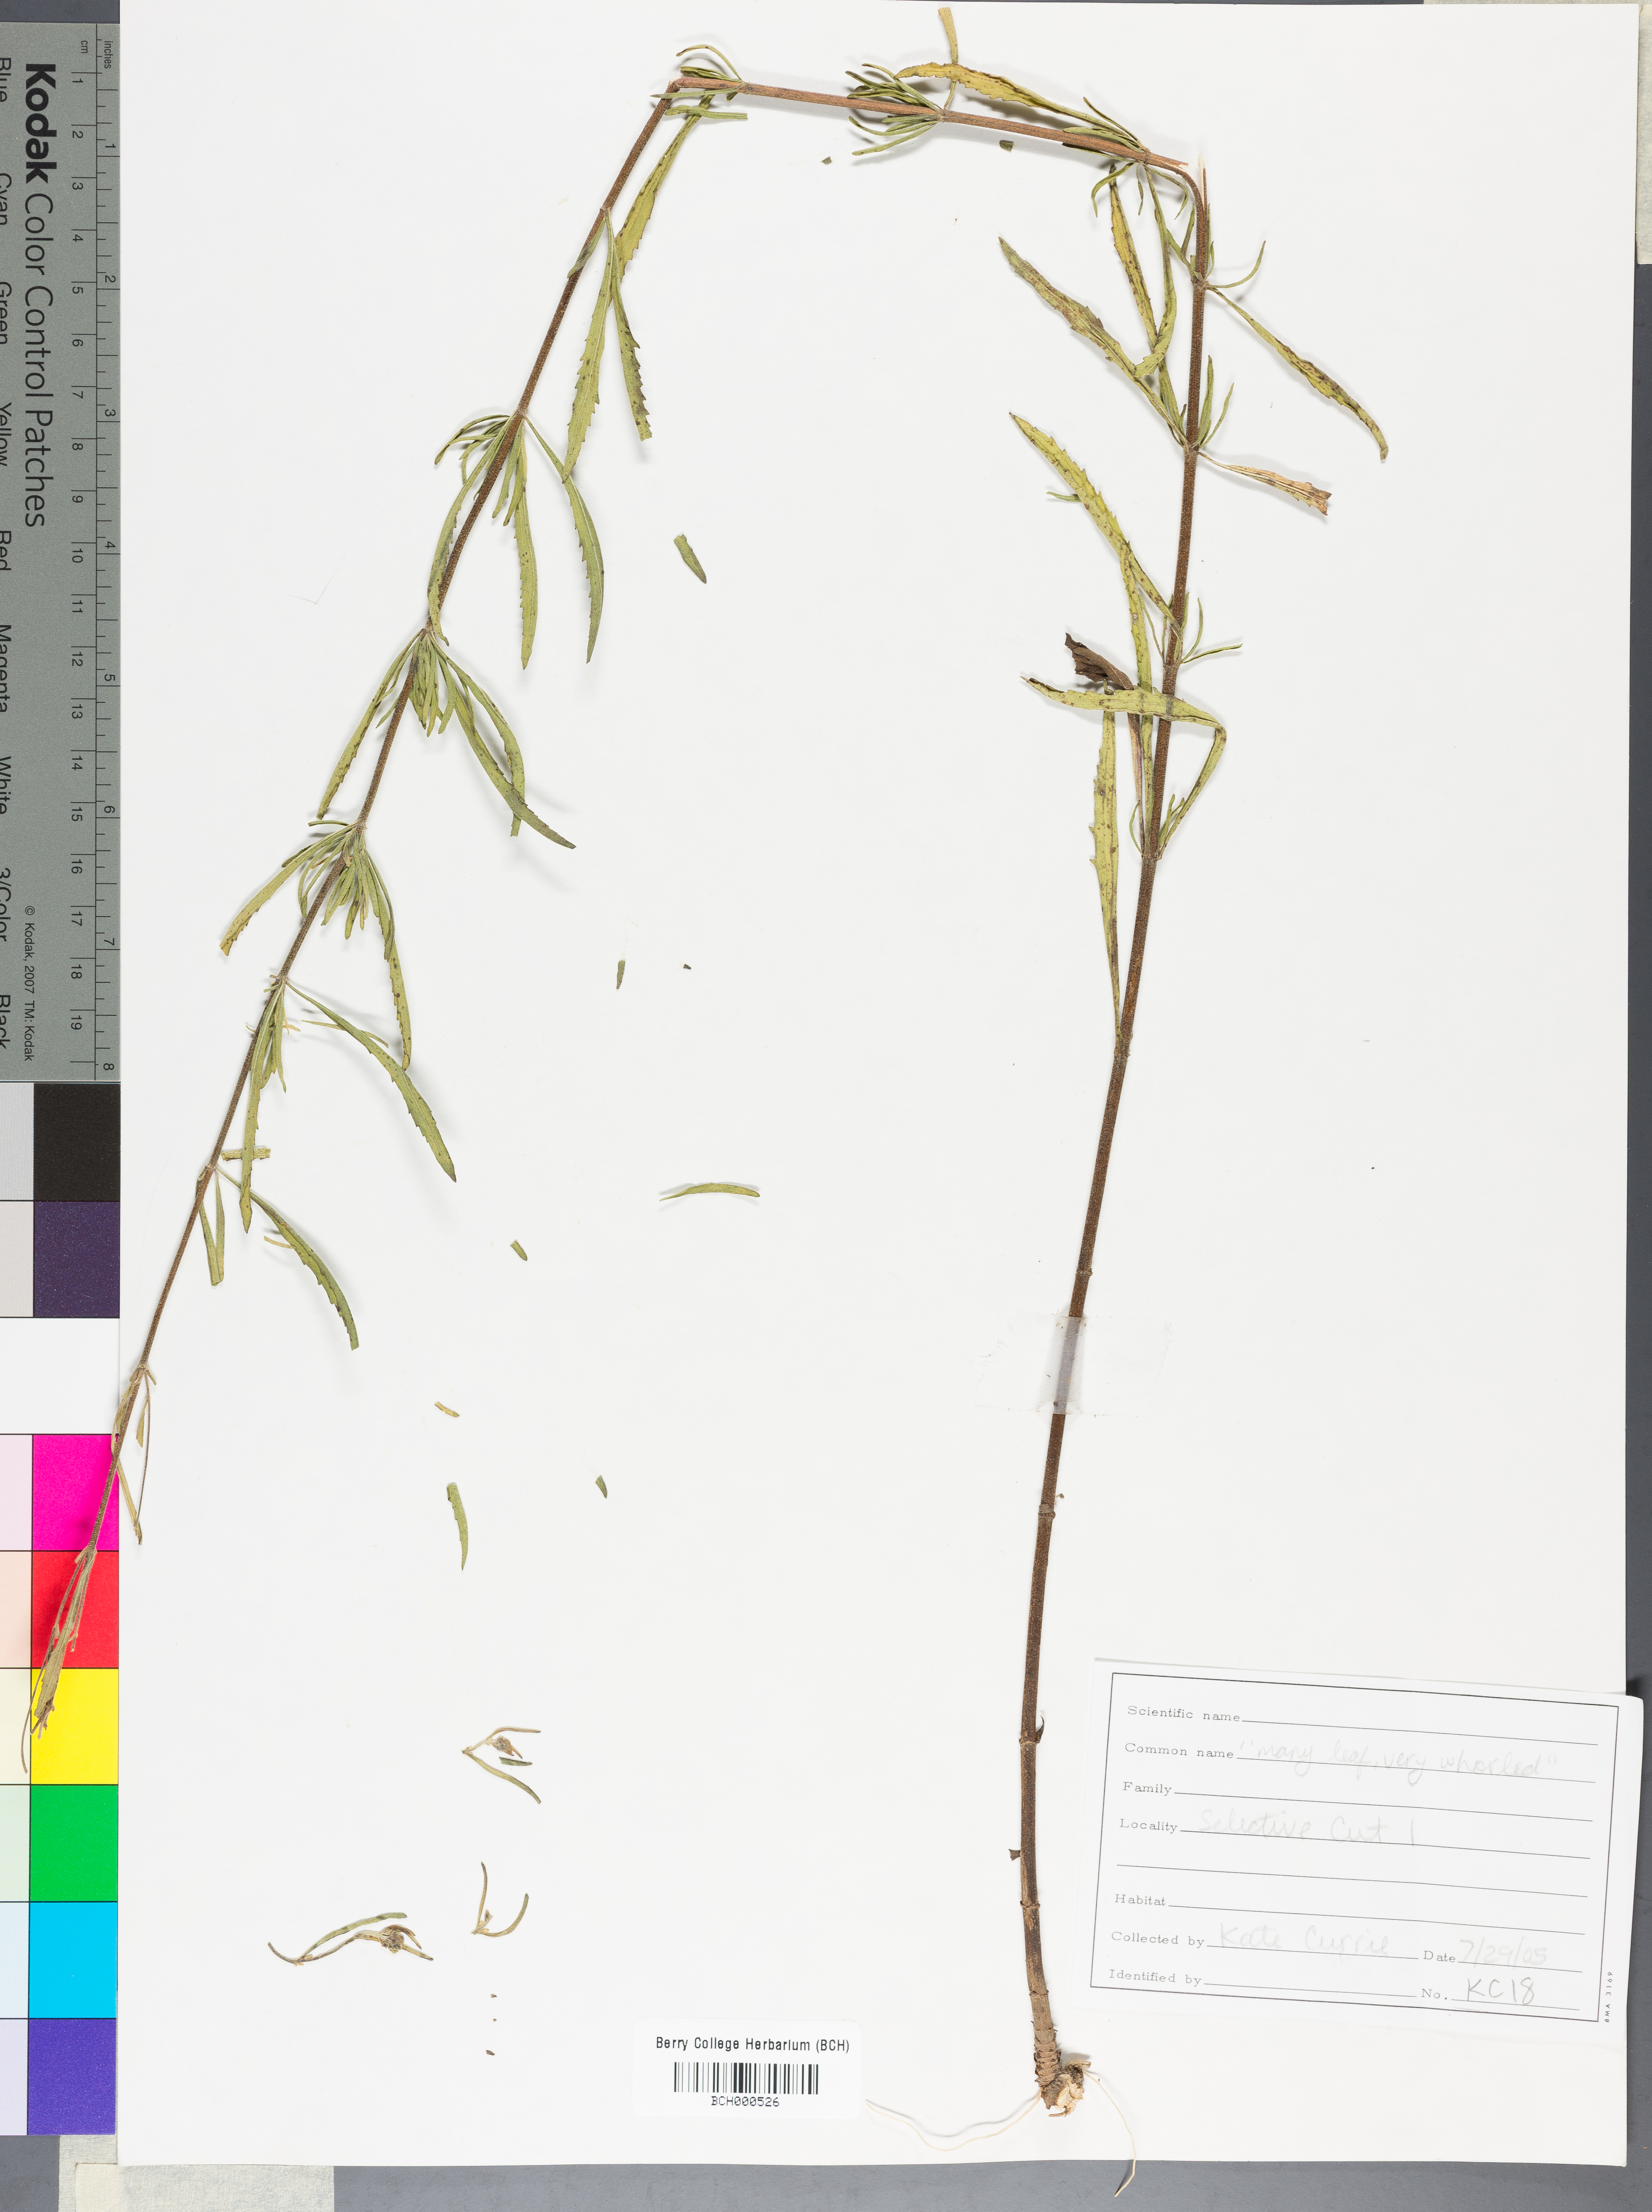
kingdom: Plantae
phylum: Tracheophyta
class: Magnoliopsida
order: Lamiales
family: Acanthaceae
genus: Adhatoda
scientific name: Adhatoda
